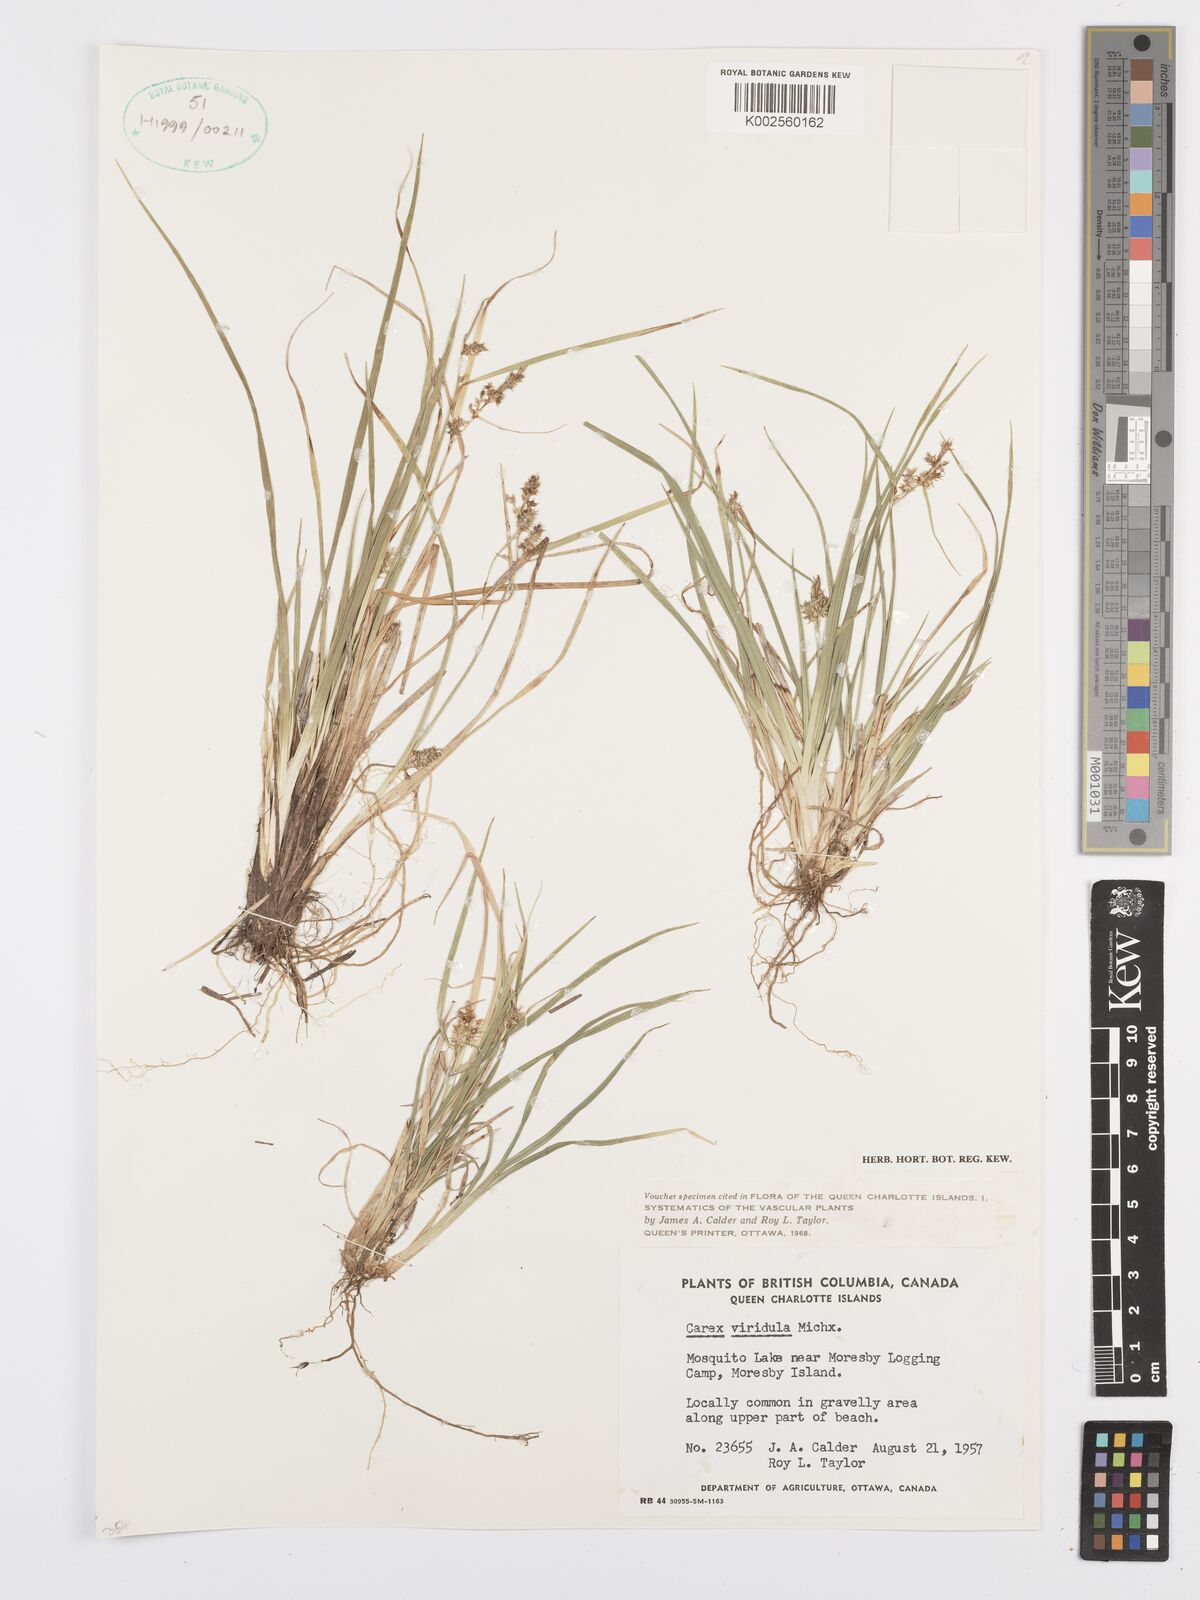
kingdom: Plantae
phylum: Tracheophyta
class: Liliopsida
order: Poales
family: Cyperaceae
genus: Carex
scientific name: Carex oederi
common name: Common & small-fruited yellow-sedge
